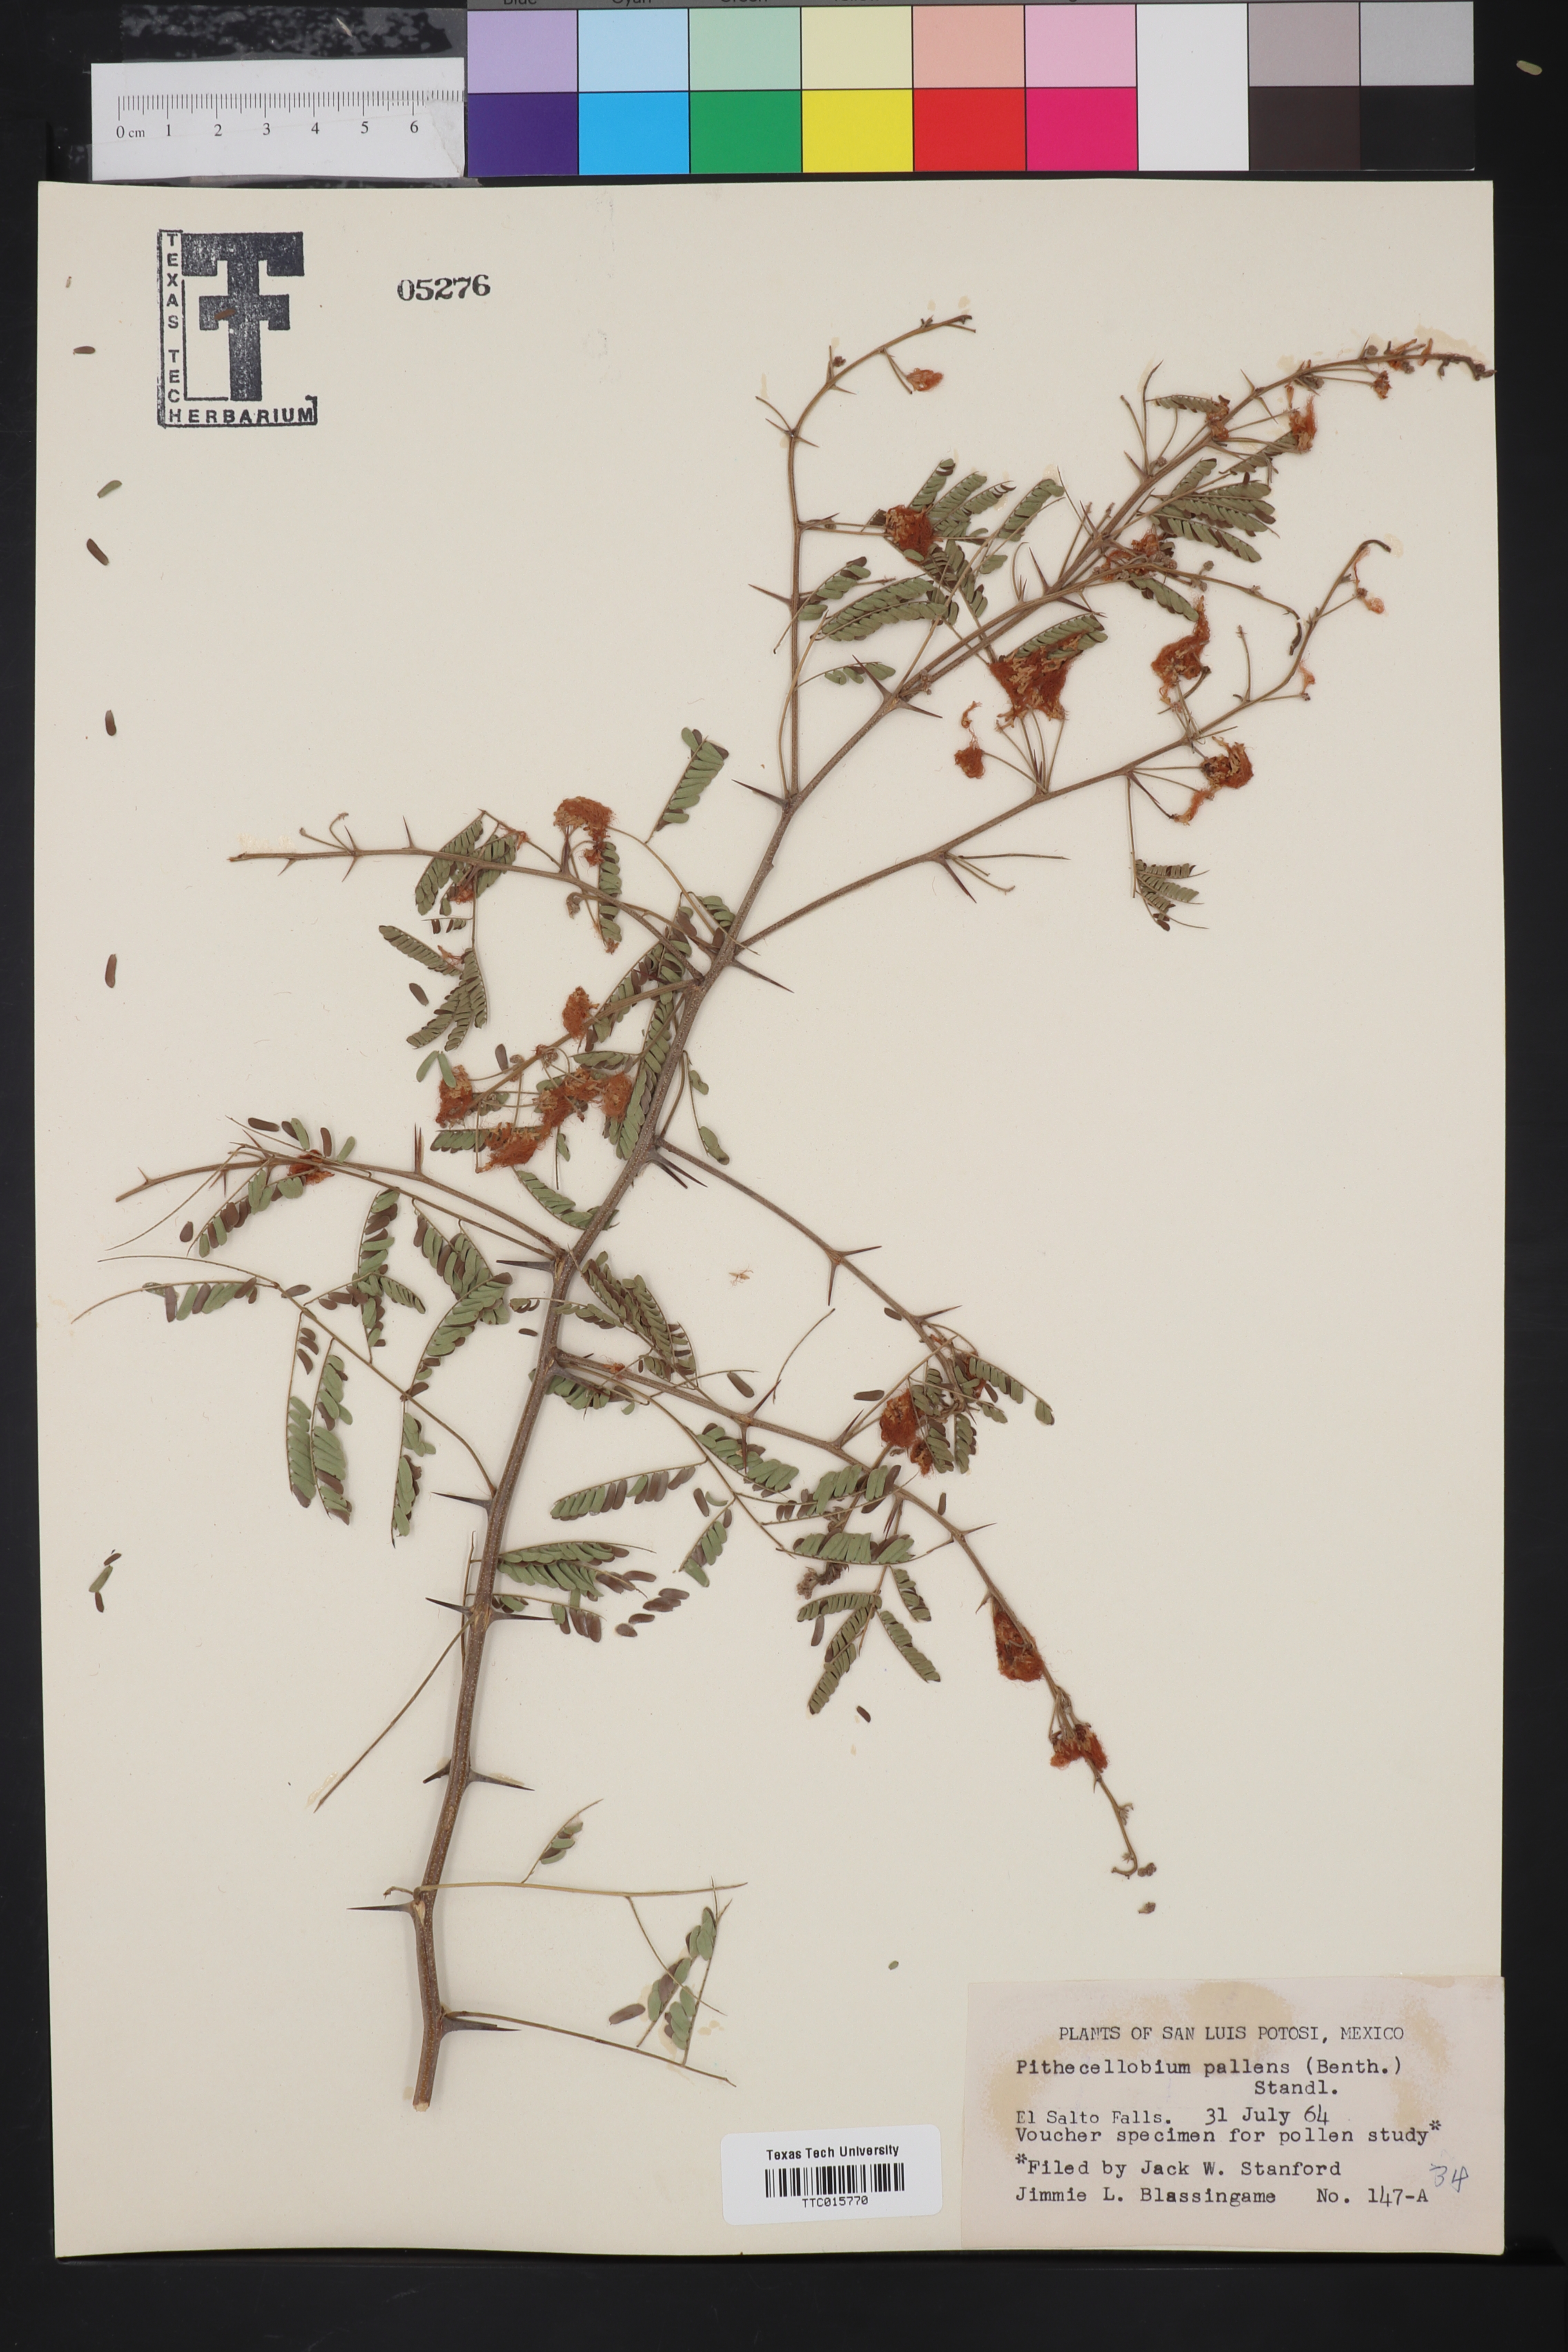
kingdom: Plantae
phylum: Tracheophyta
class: Magnoliopsida
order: Fabales
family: Fabaceae
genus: Havardia
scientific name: Havardia pallens
